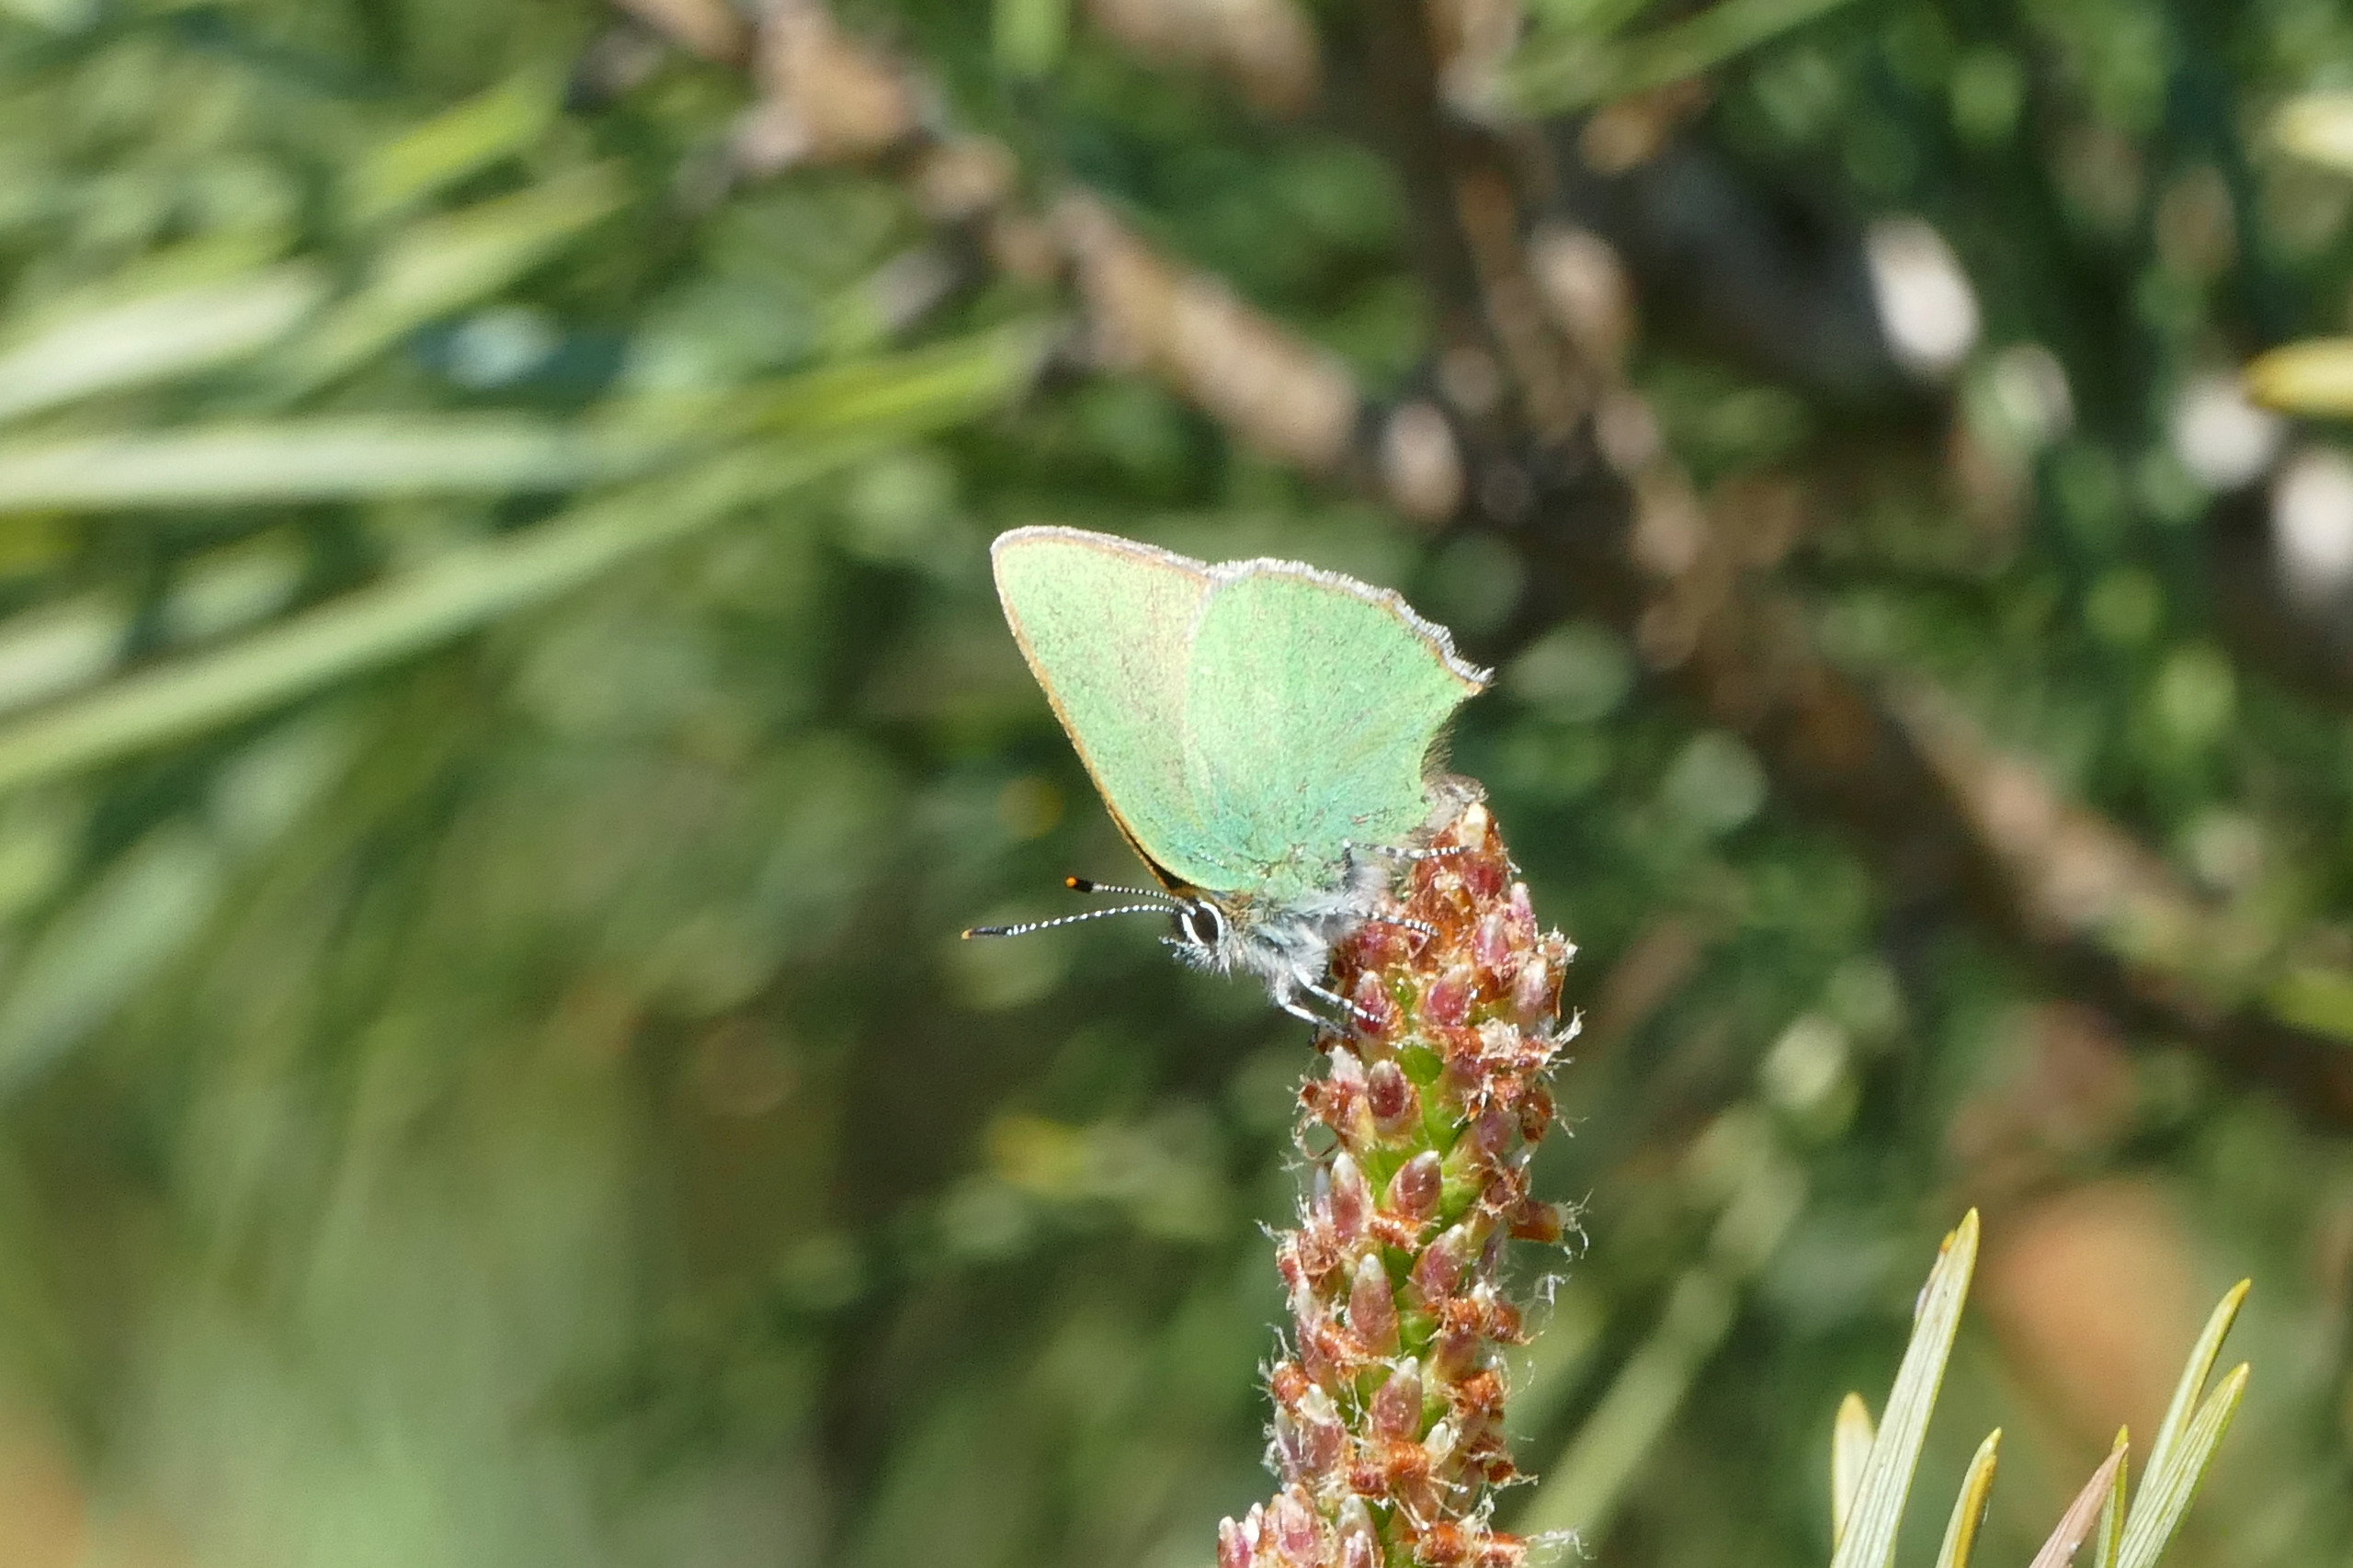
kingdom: Animalia
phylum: Arthropoda
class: Insecta
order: Lepidoptera
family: Lycaenidae
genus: Callophrys
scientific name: Callophrys rubi
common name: Grøn busksommerfugl
